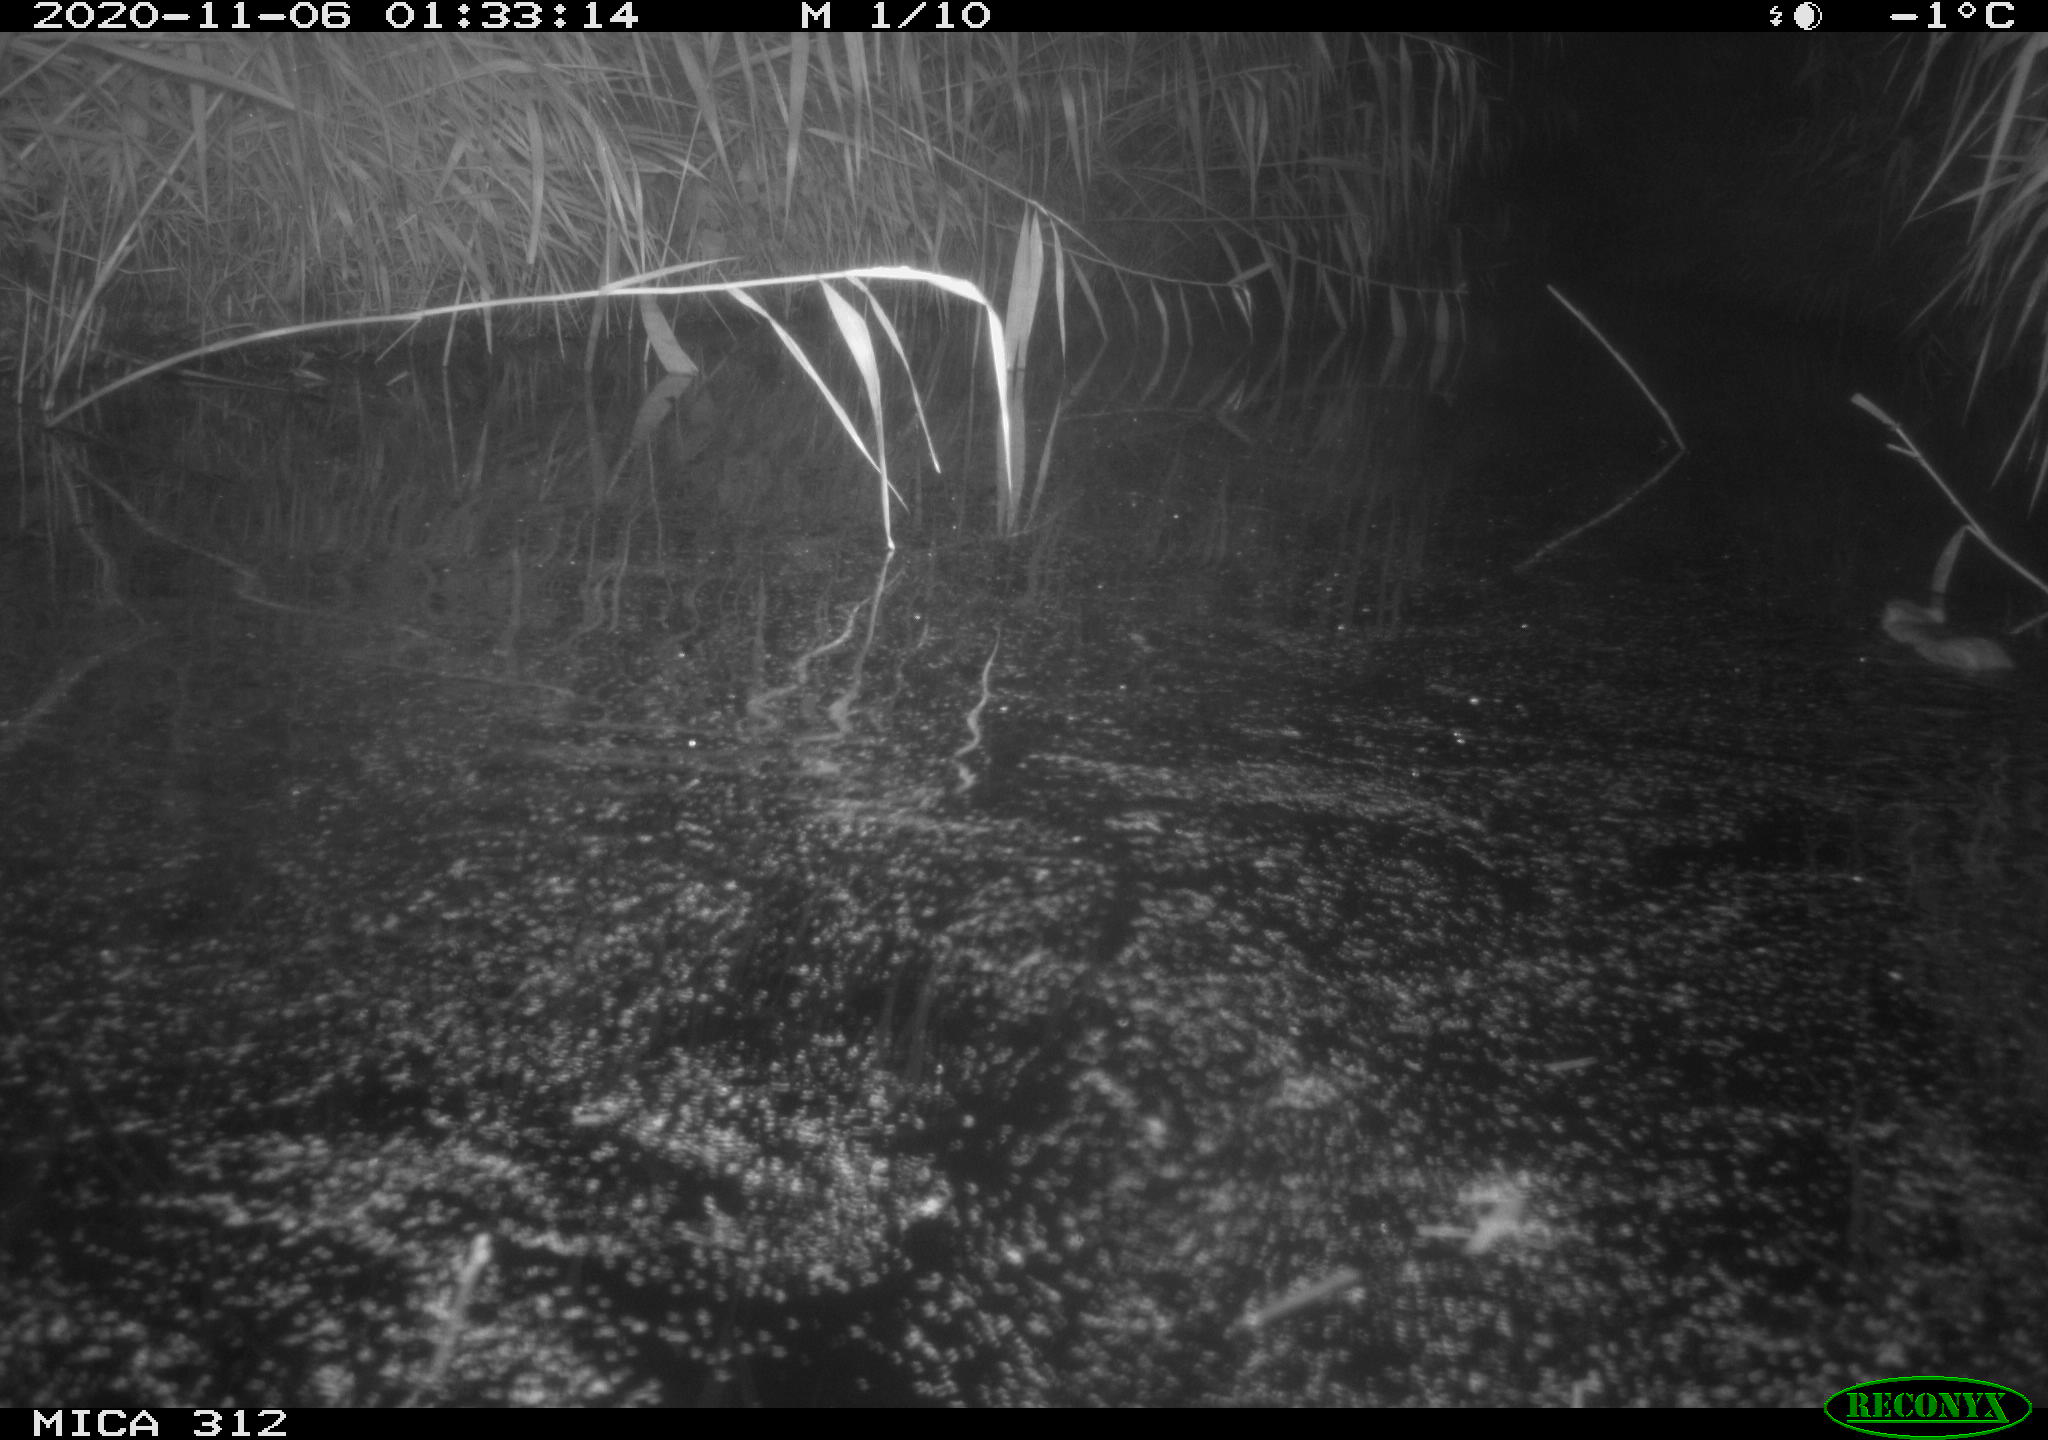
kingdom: Animalia
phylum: Chordata
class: Mammalia
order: Rodentia
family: Muridae
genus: Rattus
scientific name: Rattus norvegicus
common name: Brown rat
